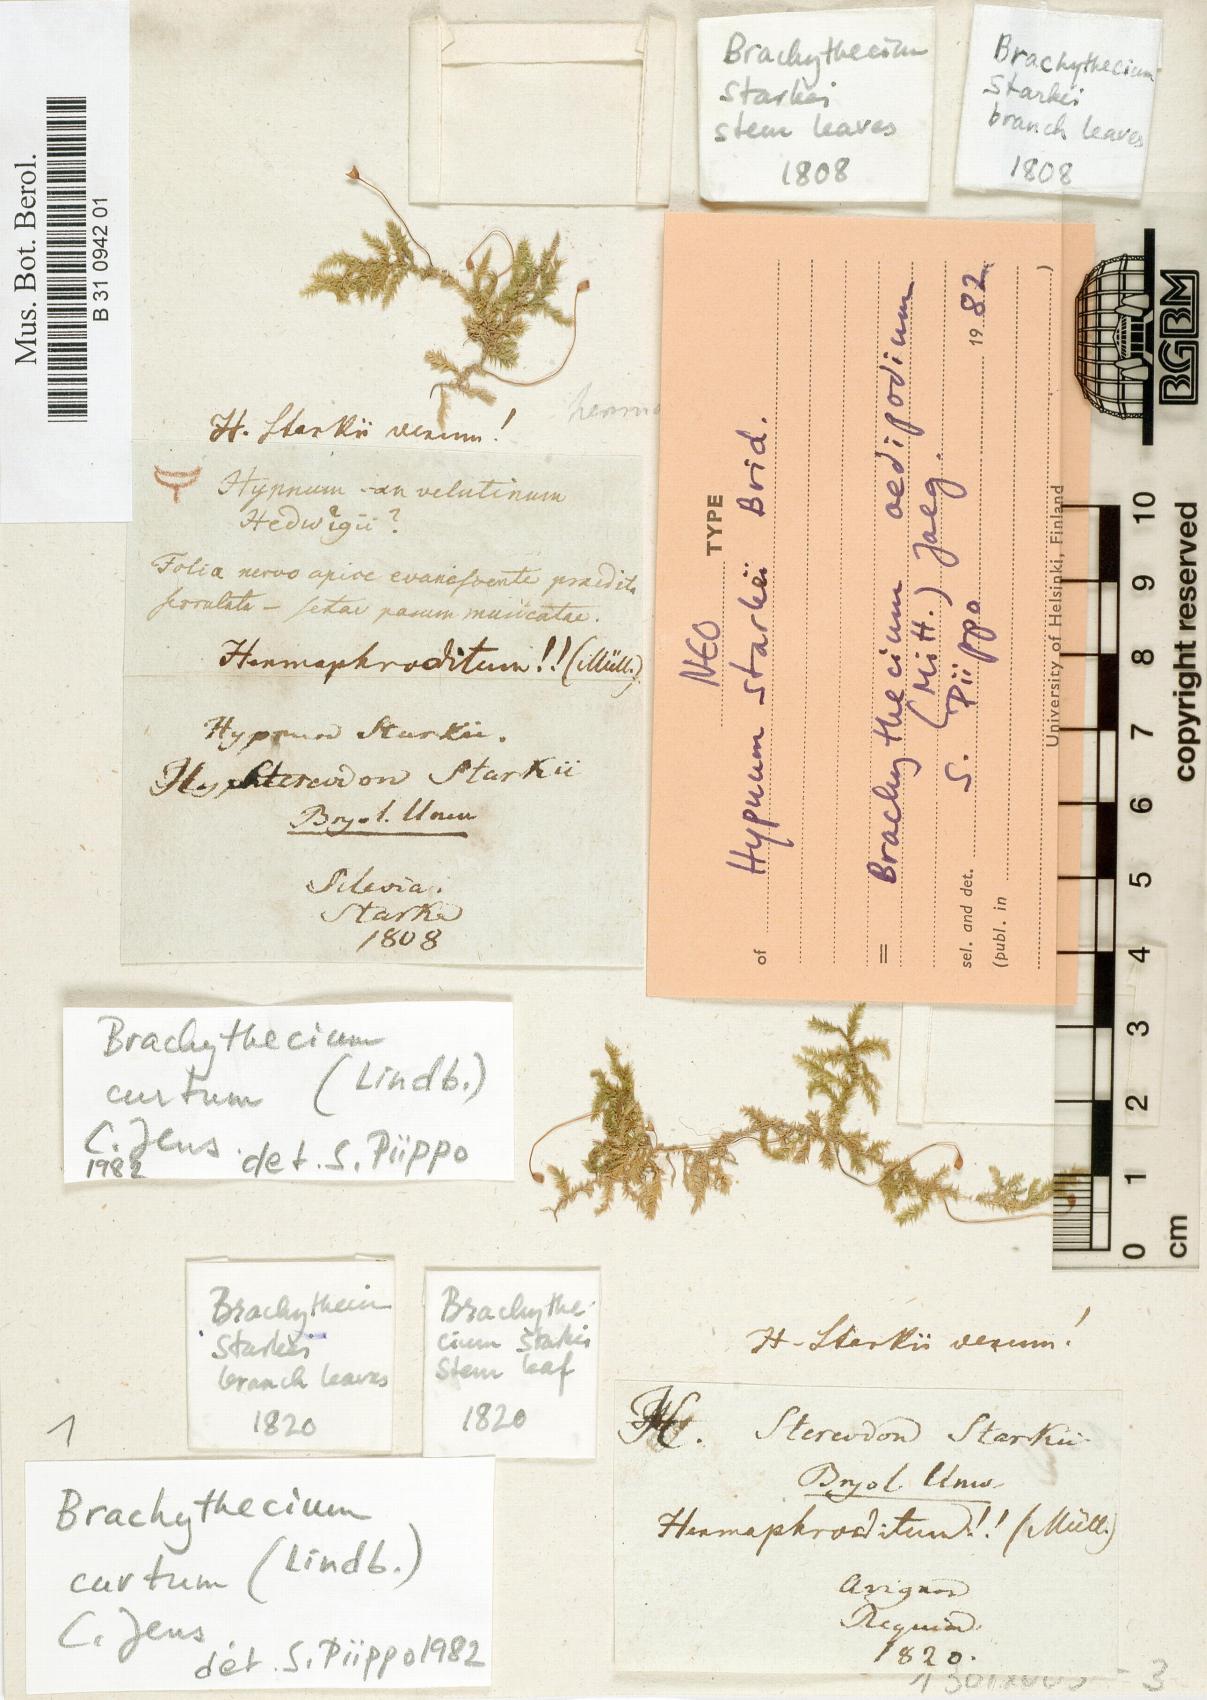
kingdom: Plantae
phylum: Bryophyta
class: Bryopsida
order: Hypnales
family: Brachytheciaceae
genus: Sciuro-hypnum
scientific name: Sciuro-hypnum starkei
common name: Starke's feather-moss
